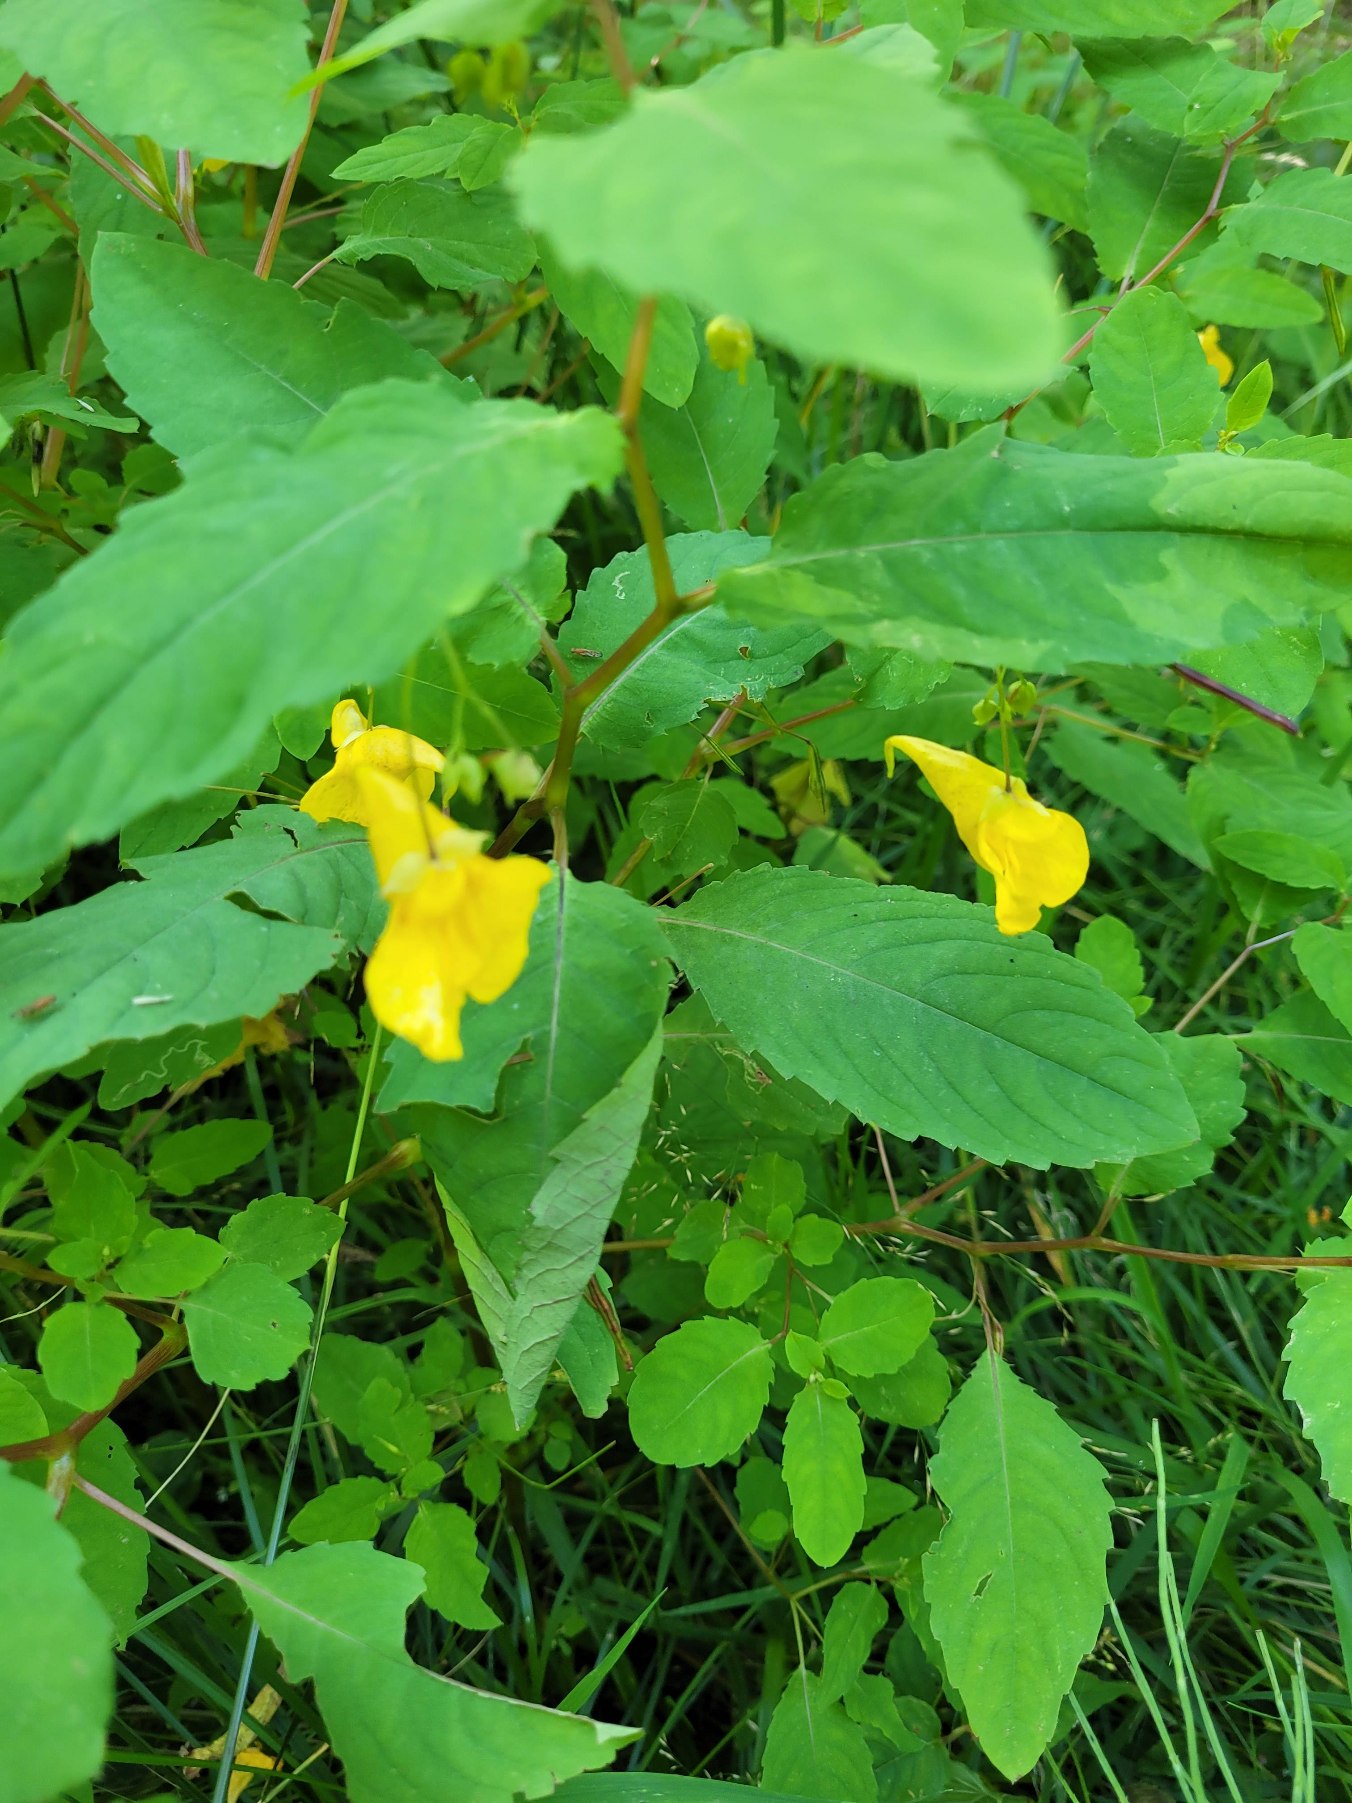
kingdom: Plantae
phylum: Tracheophyta
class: Magnoliopsida
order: Ericales
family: Balsaminaceae
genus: Impatiens
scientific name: Impatiens noli-tangere
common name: Spring-balsamin
